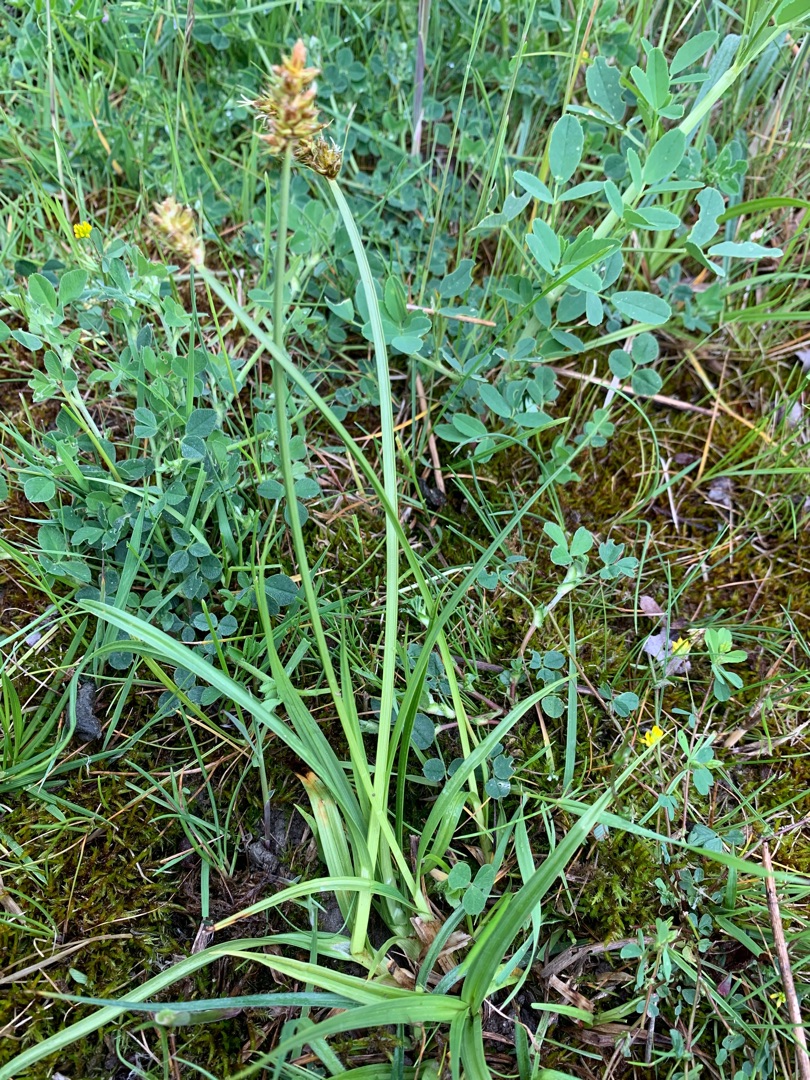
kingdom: Plantae
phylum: Tracheophyta
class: Liliopsida
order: Poales
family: Cyperaceae
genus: Carex
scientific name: Carex otrubae
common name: Sylt-star
